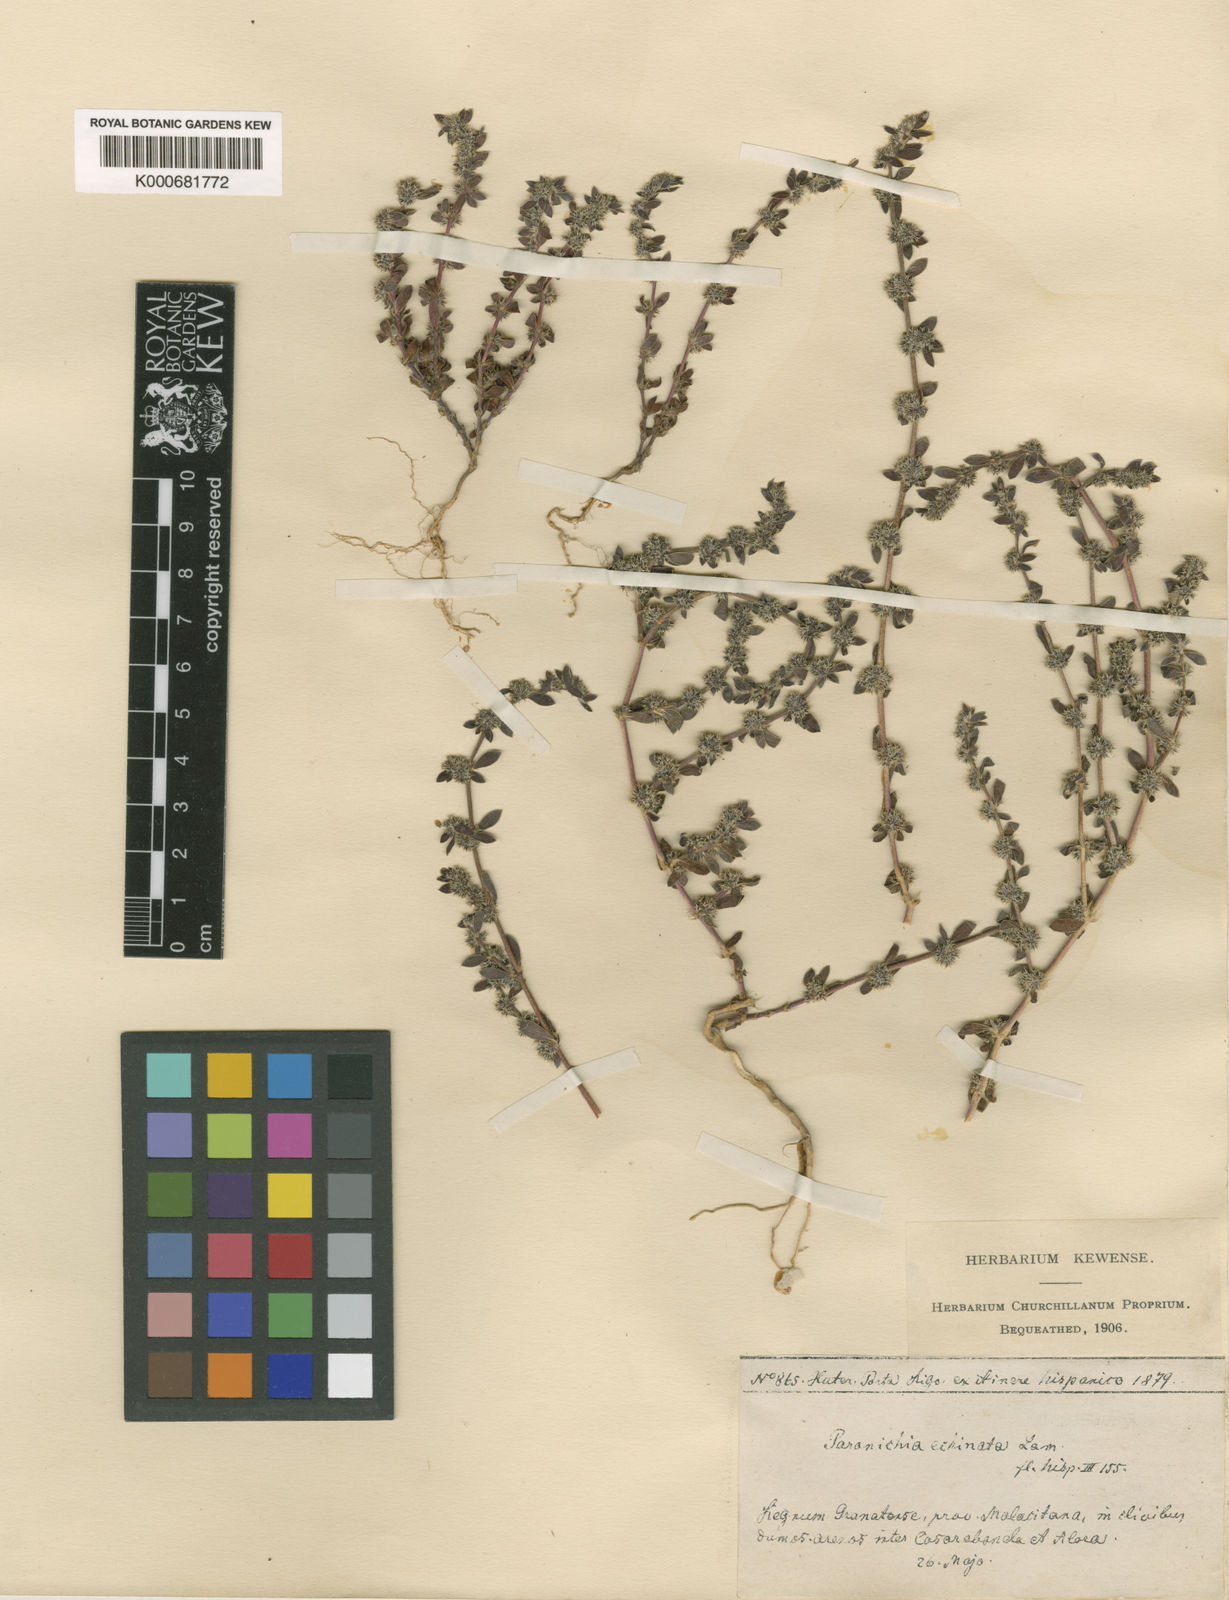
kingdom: Plantae
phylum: Tracheophyta
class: Magnoliopsida
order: Caryophyllales
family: Caryophyllaceae
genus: Paronychia
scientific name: Paronychia echinulata
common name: Eurasian nailwort
